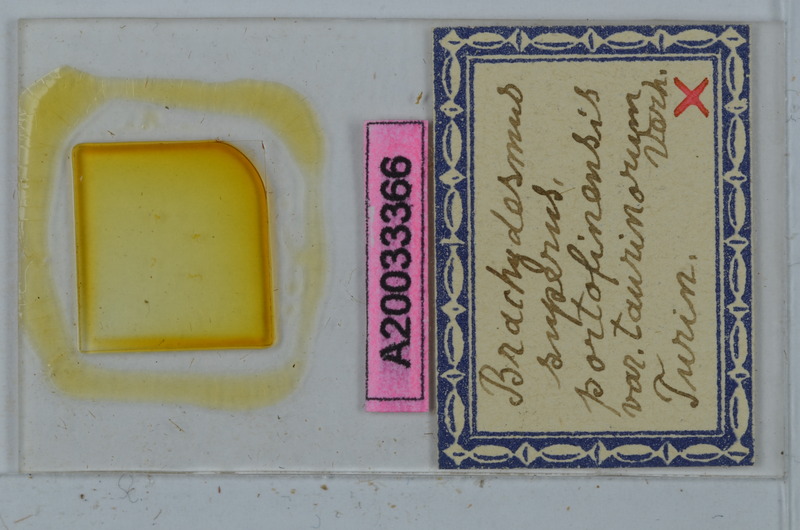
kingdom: Animalia
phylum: Arthropoda
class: Diplopoda
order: Polydesmida
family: Polydesmidae
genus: Brachydesmus
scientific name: Brachydesmus superus
